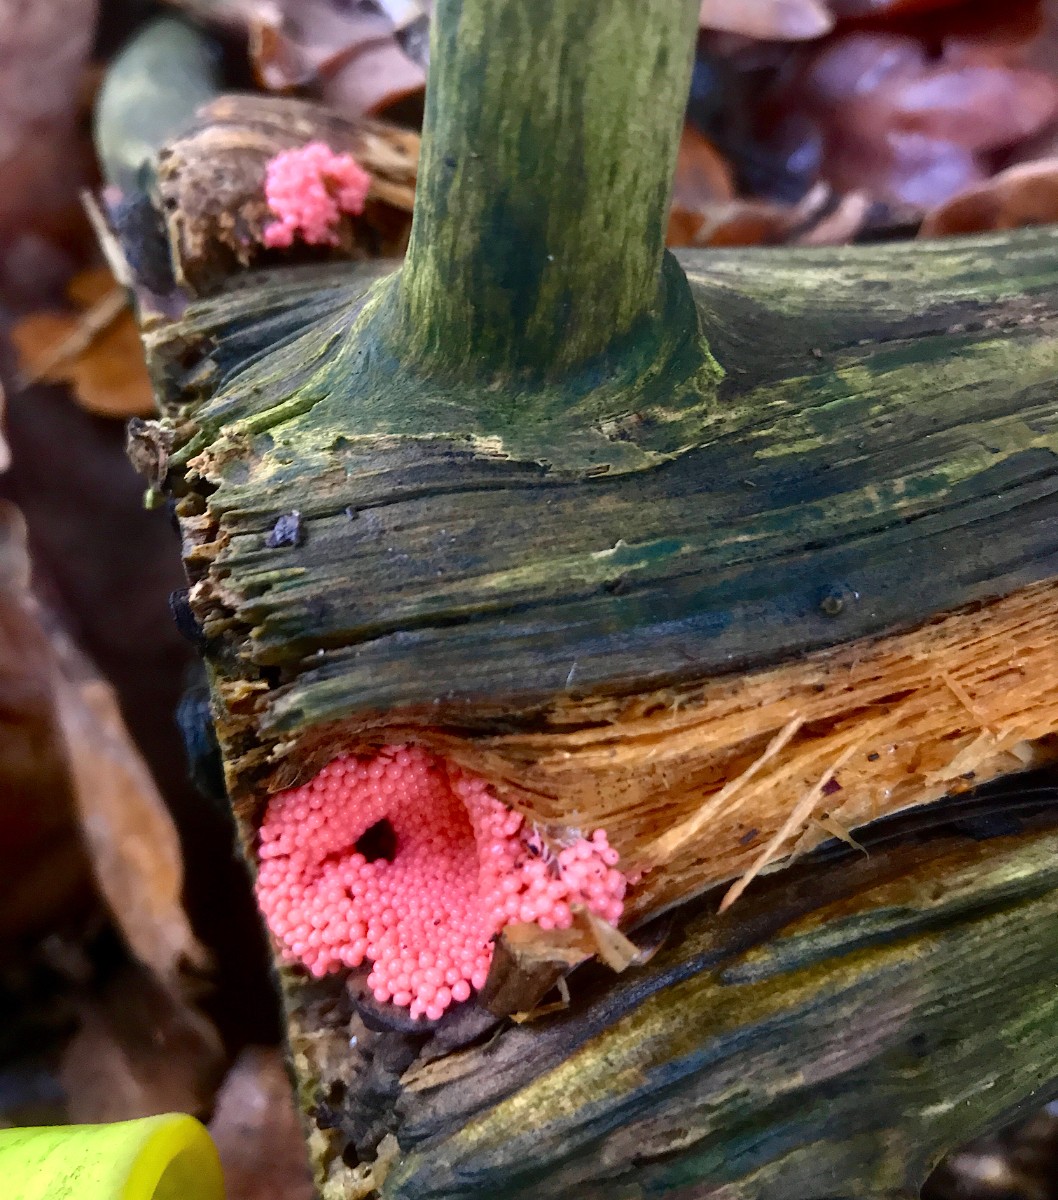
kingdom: Protozoa
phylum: Mycetozoa
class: Myxomycetes
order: Cribrariales
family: Tubiferaceae
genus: Tubifera
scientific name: Tubifera ferruginosa
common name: kanel-støvrør
